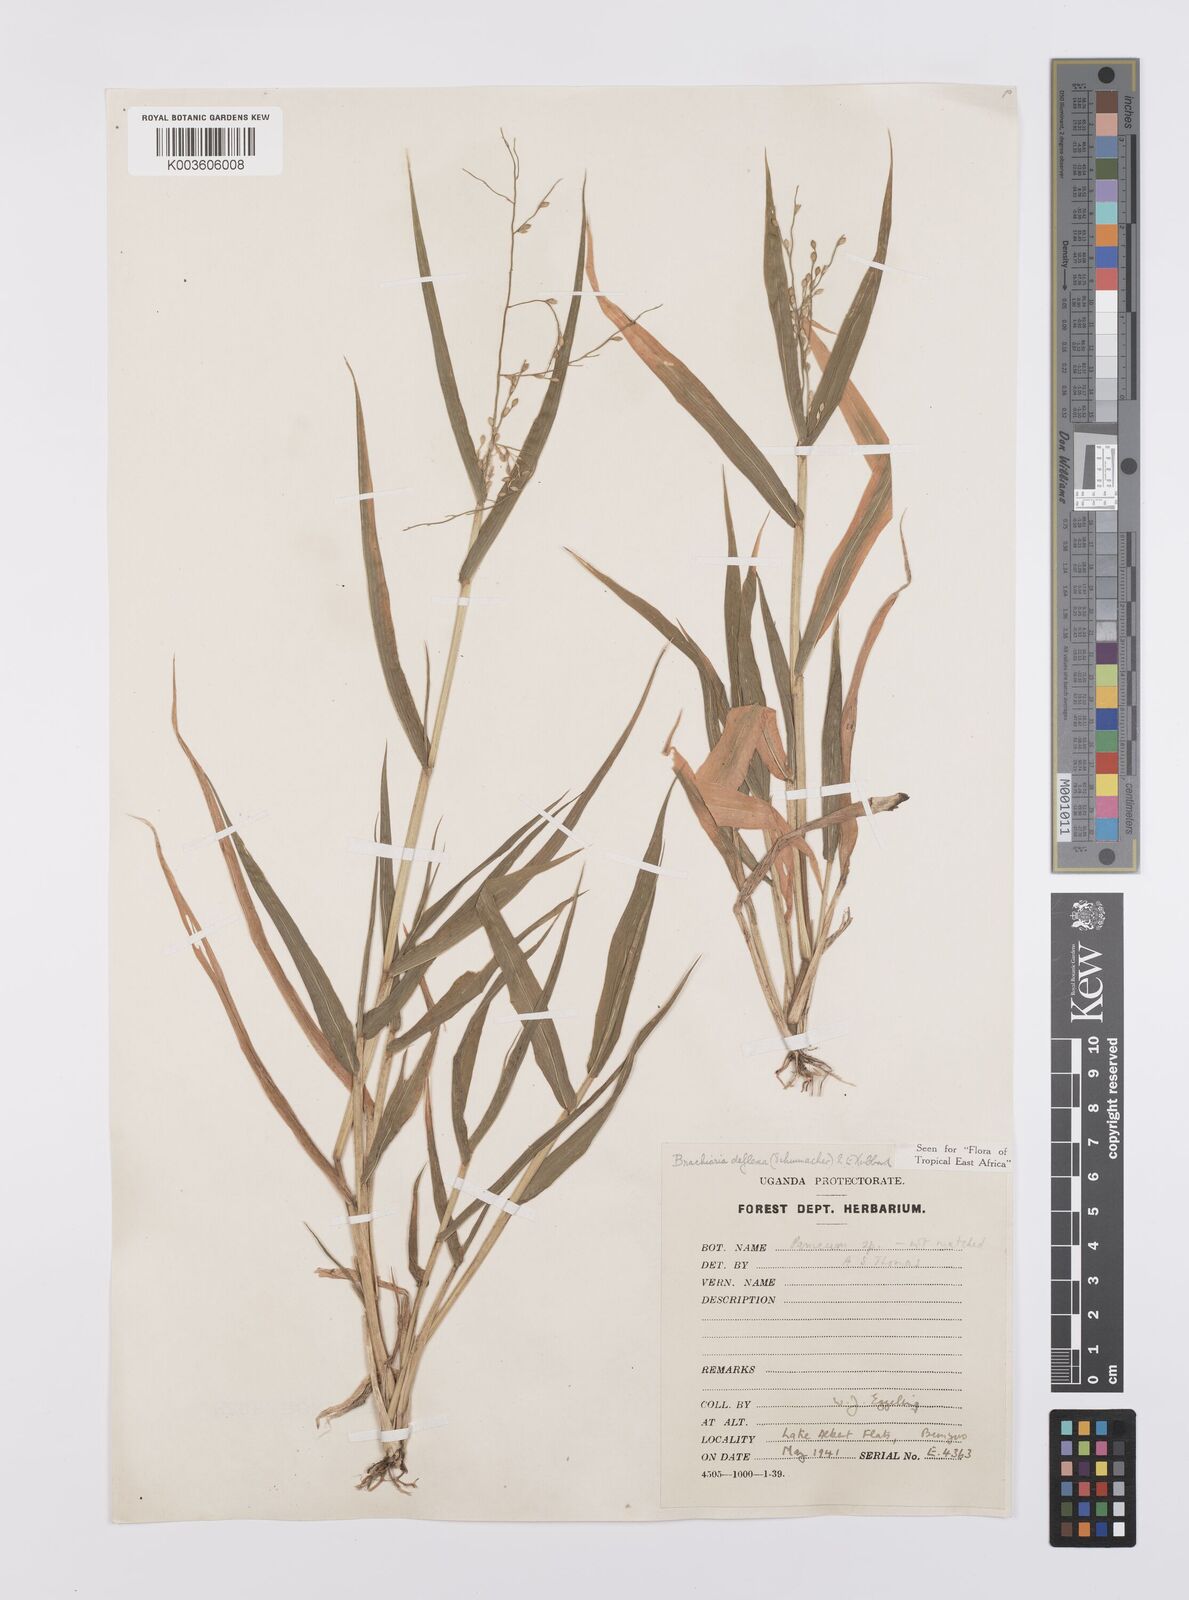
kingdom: Plantae
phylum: Tracheophyta
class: Liliopsida
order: Poales
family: Poaceae
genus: Urochloa
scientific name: Urochloa deflexa
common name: Guinea millet
